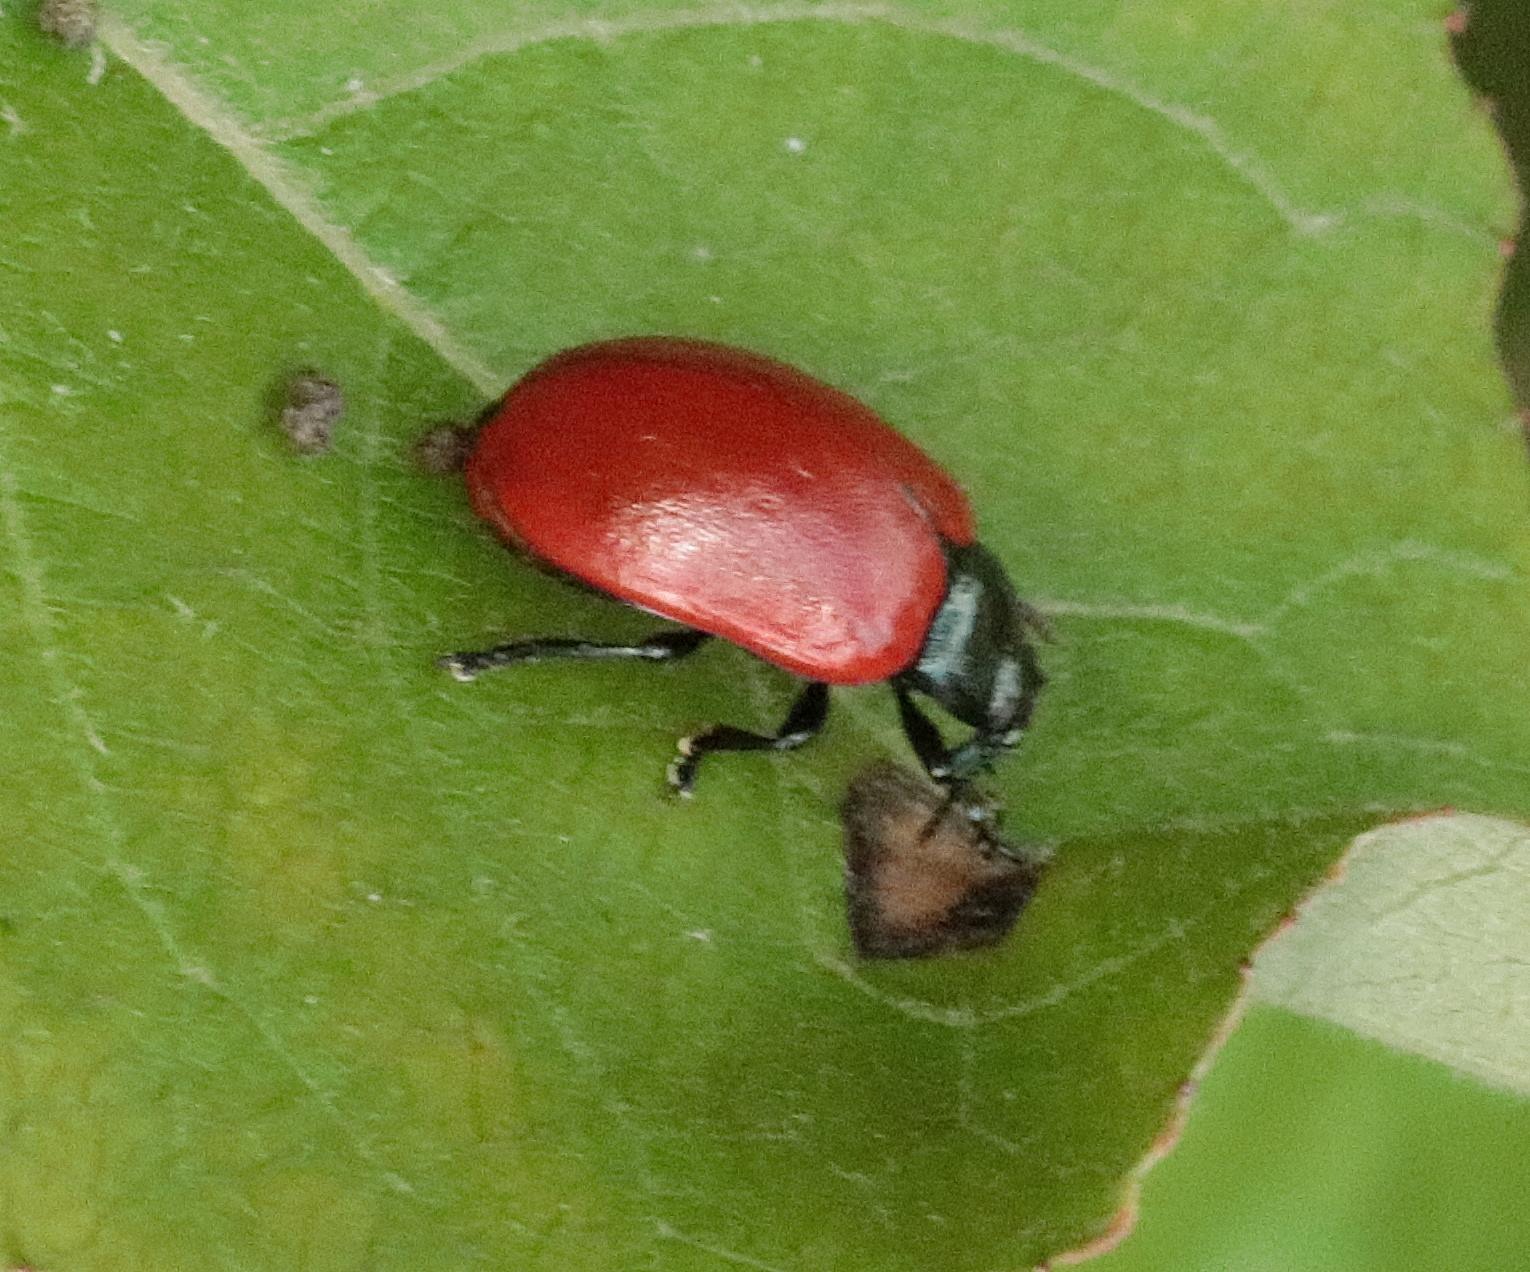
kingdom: Animalia
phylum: Arthropoda
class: Insecta
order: Coleoptera
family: Chrysomelidae
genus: Chrysomela
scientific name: Chrysomela populi
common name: Poppelbladbille
